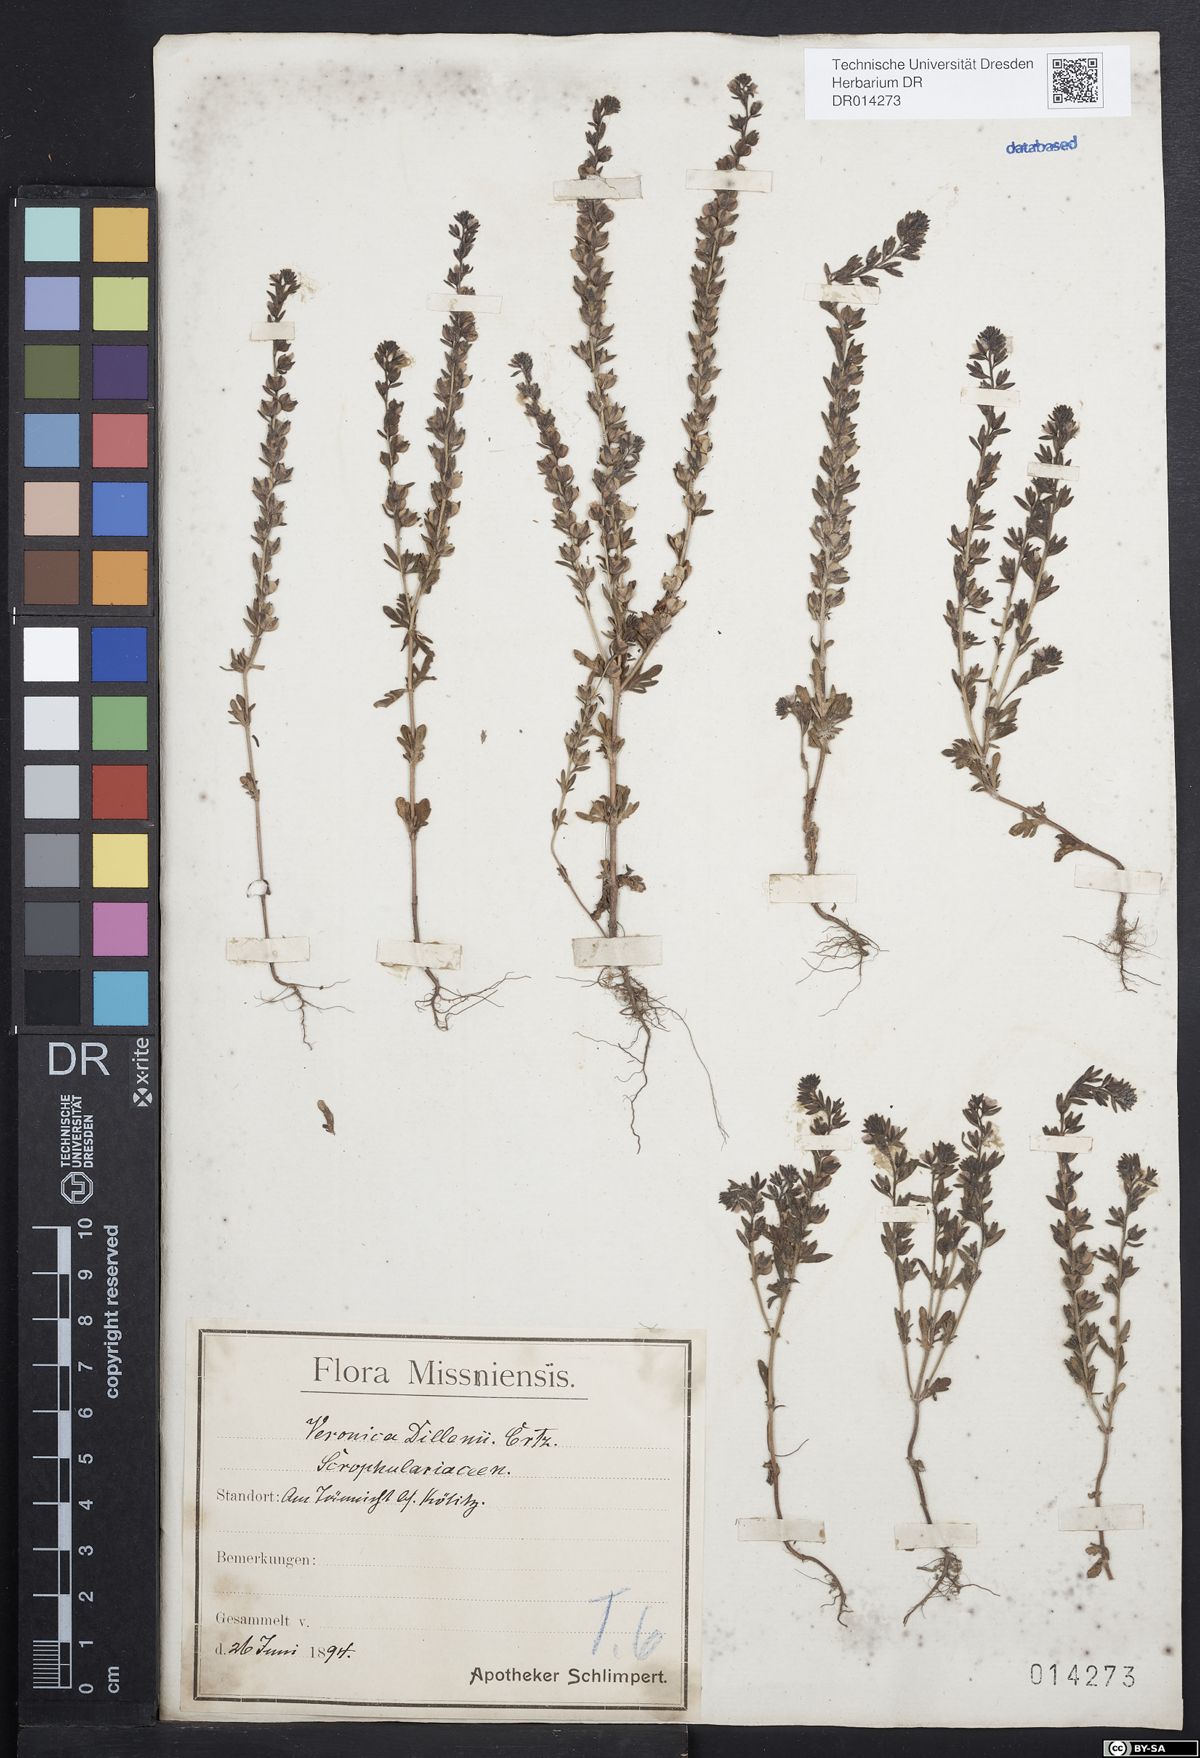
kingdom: Plantae
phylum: Tracheophyta
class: Magnoliopsida
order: Lamiales
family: Plantaginaceae
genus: Veronica
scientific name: Veronica dillenii
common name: Dillenius' speedwell
